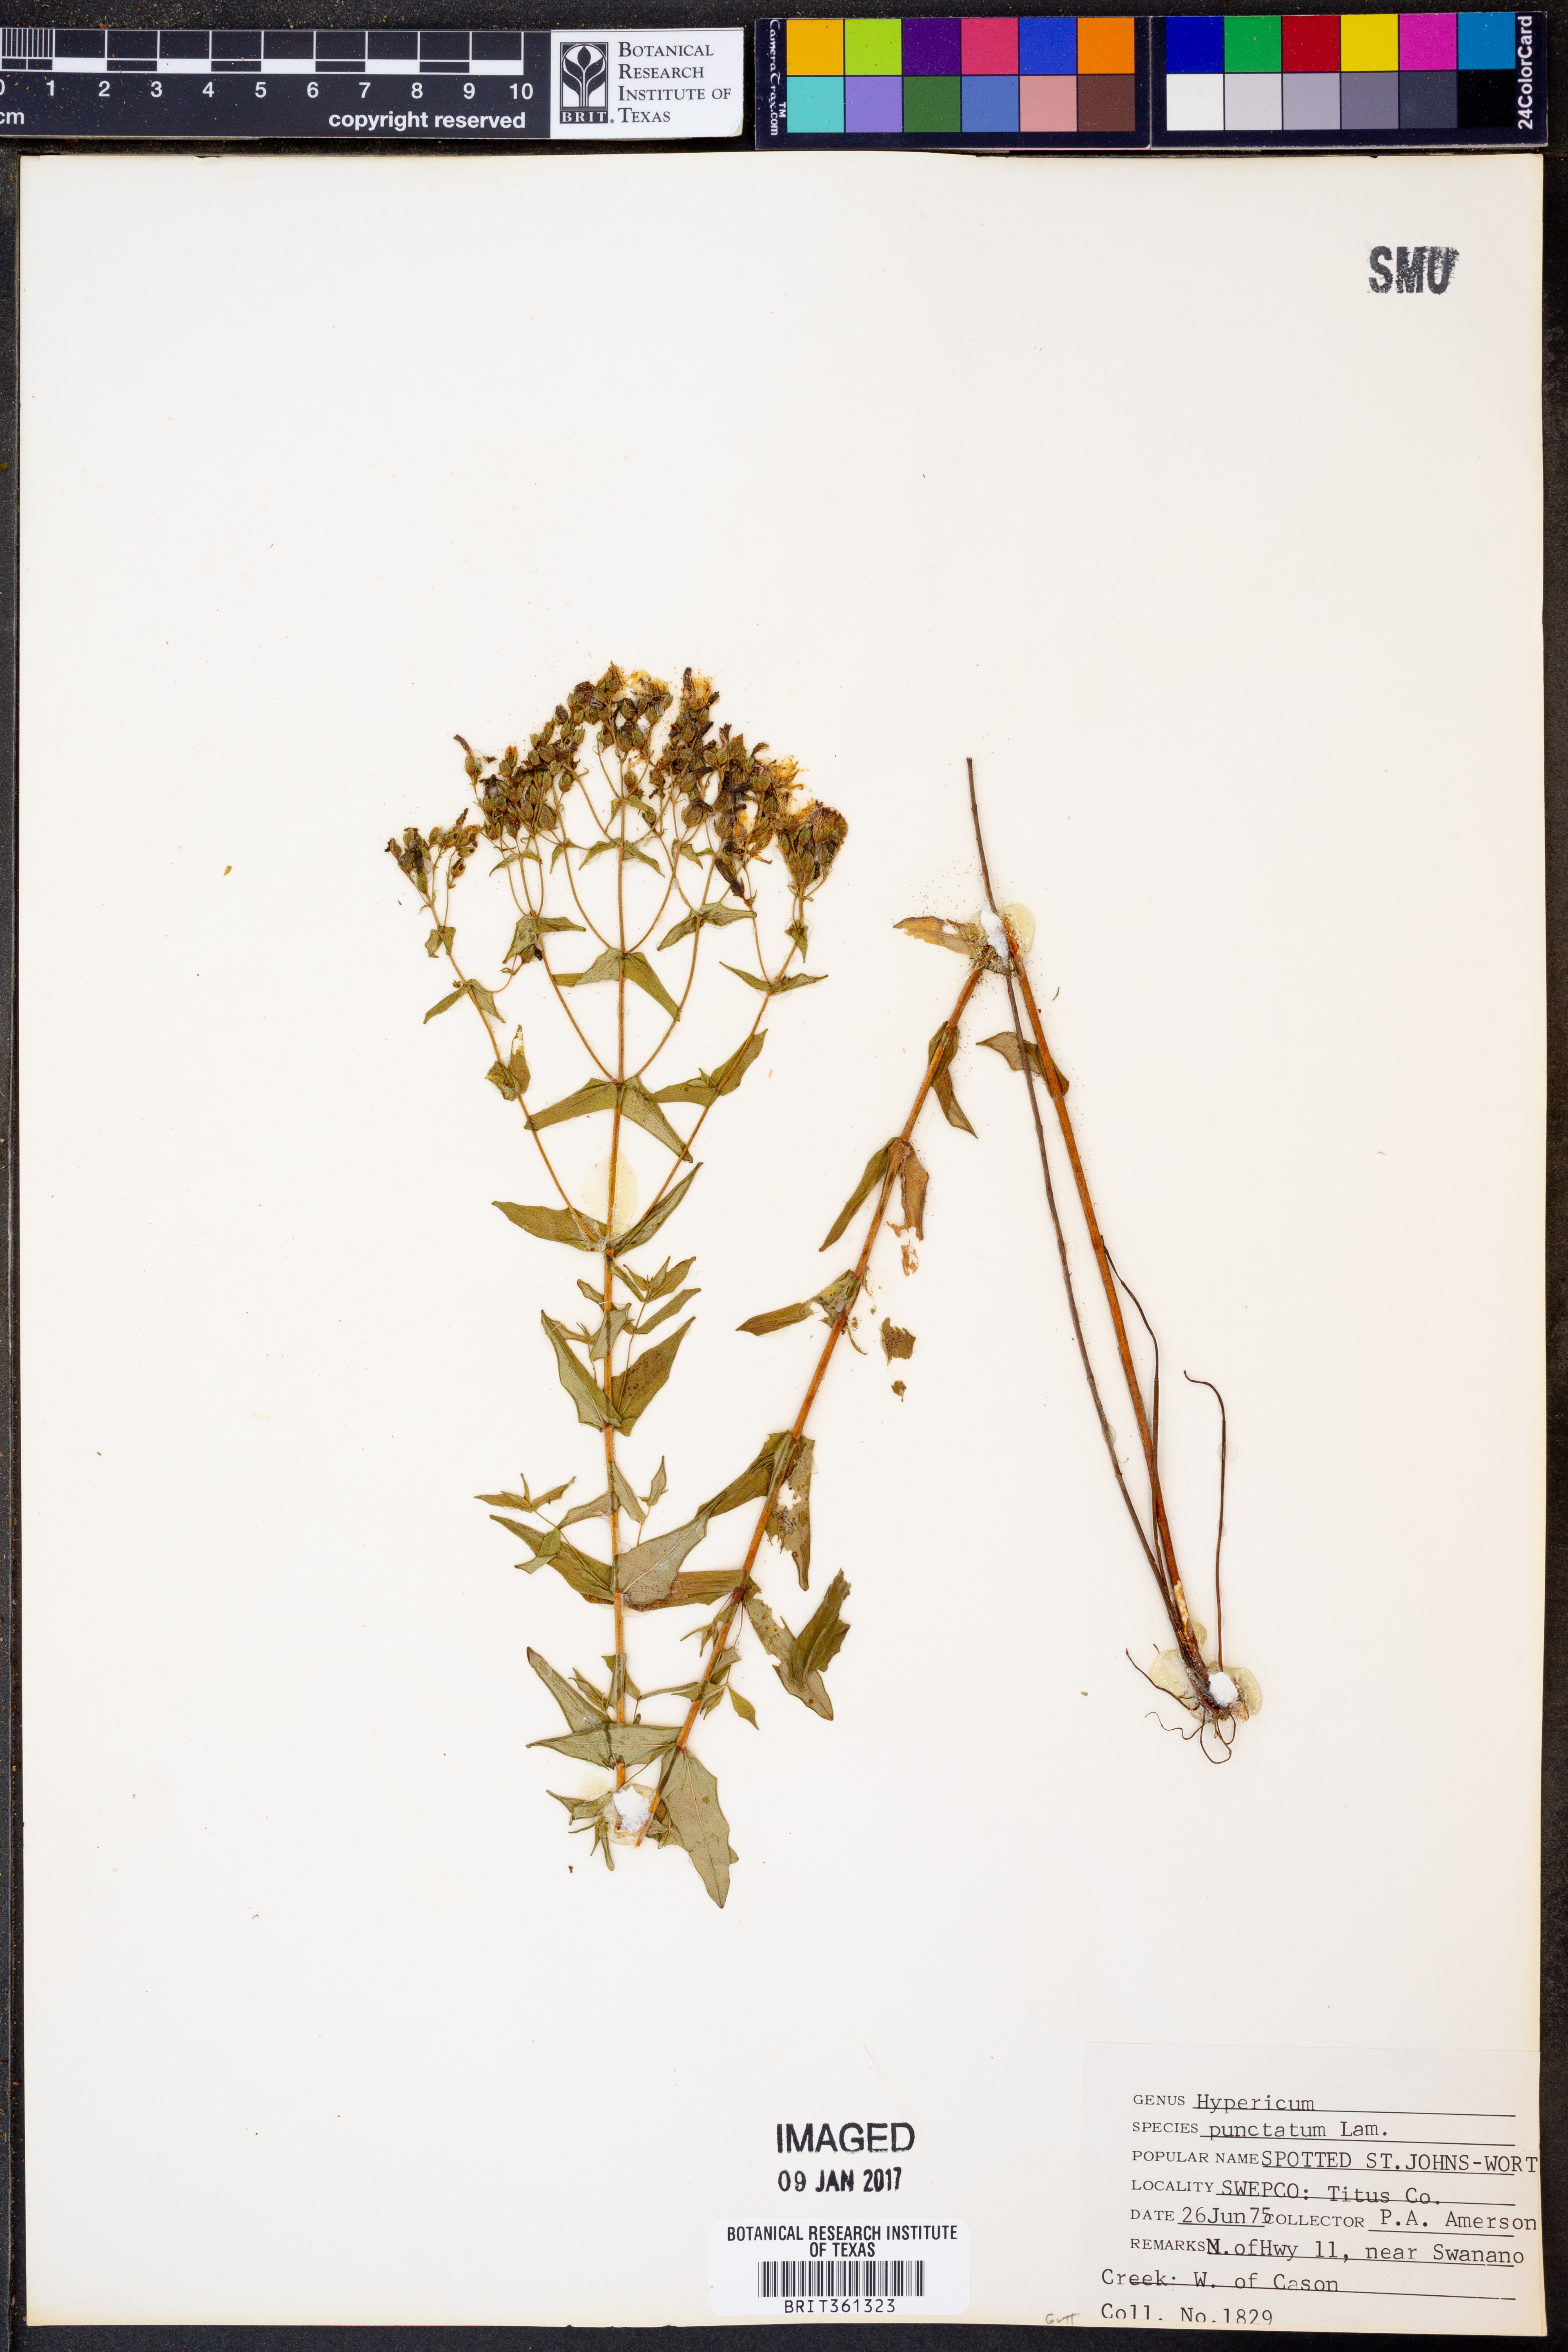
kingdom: Plantae
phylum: Tracheophyta
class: Magnoliopsida
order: Malpighiales
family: Hypericaceae
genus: Hypericum
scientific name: Hypericum punctatum
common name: Spotted st. john's-wort
